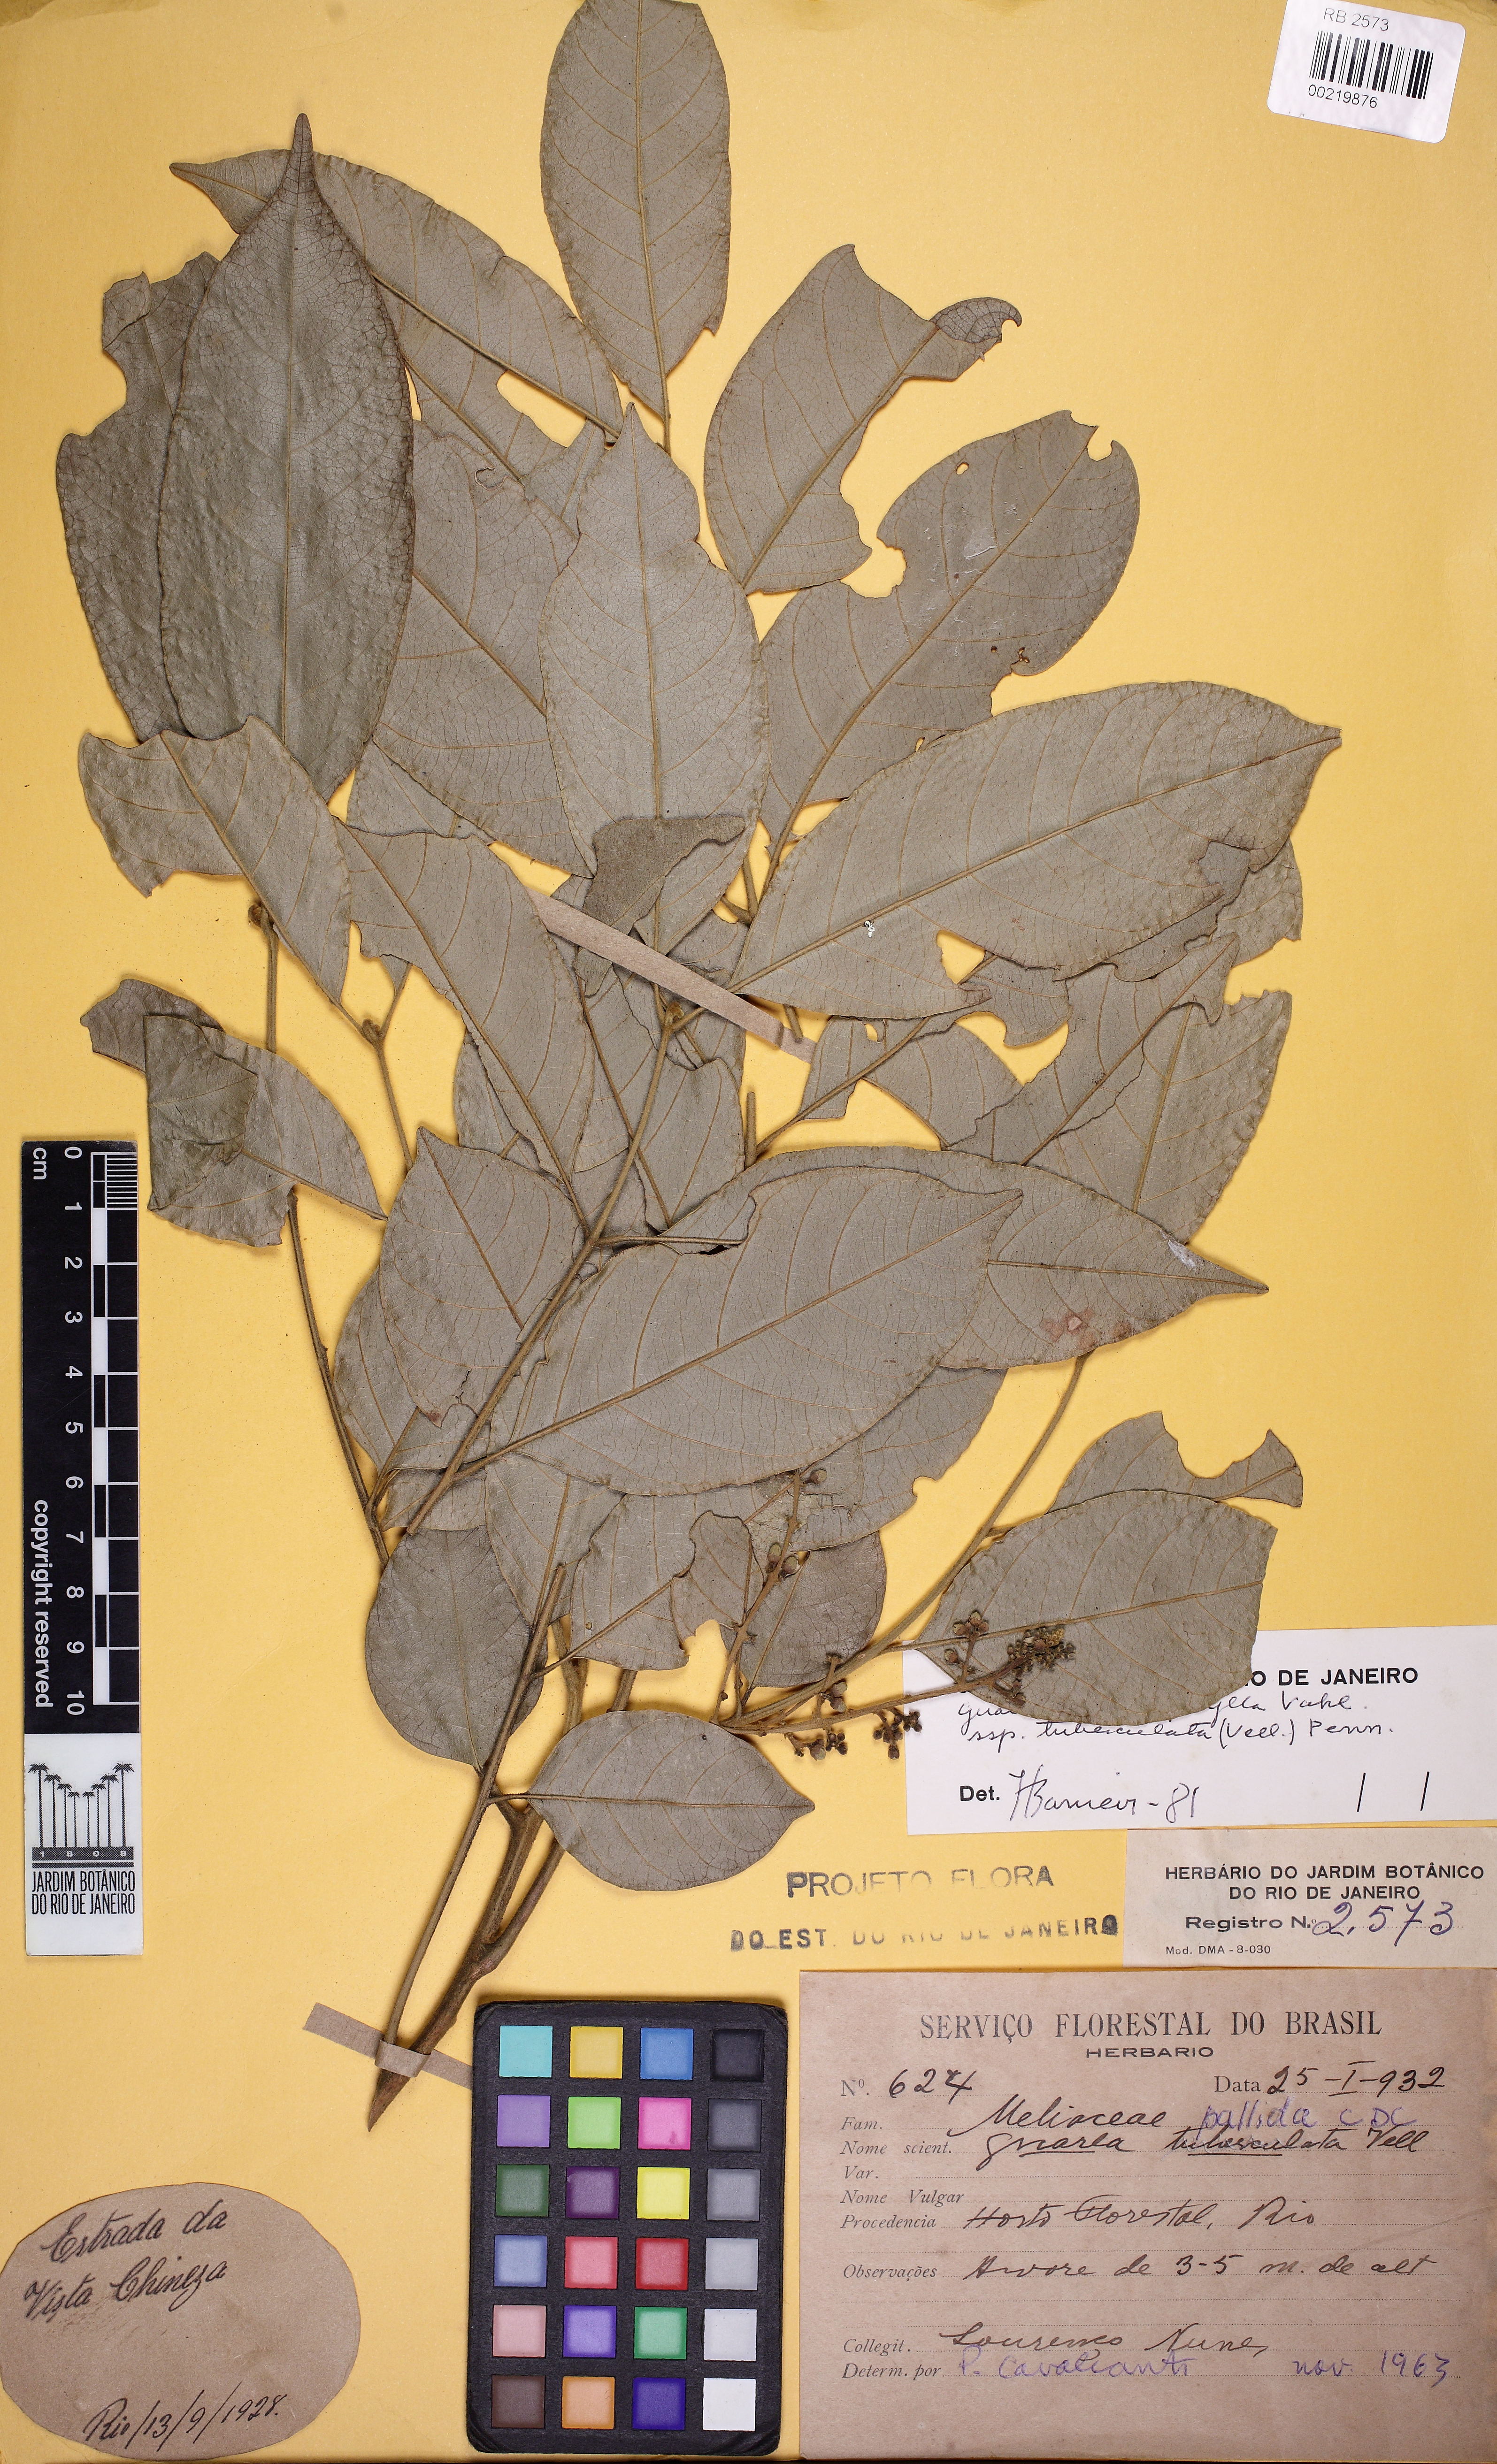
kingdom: Plantae
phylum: Tracheophyta
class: Magnoliopsida
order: Sapindales
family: Meliaceae
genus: Guarea
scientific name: Guarea macrophylla
